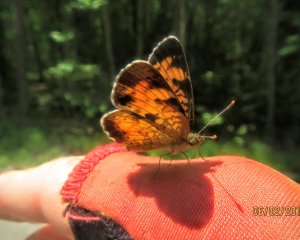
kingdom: Animalia
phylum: Arthropoda
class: Insecta
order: Lepidoptera
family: Nymphalidae
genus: Phyciodes
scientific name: Phyciodes tharos
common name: Northern Crescent
